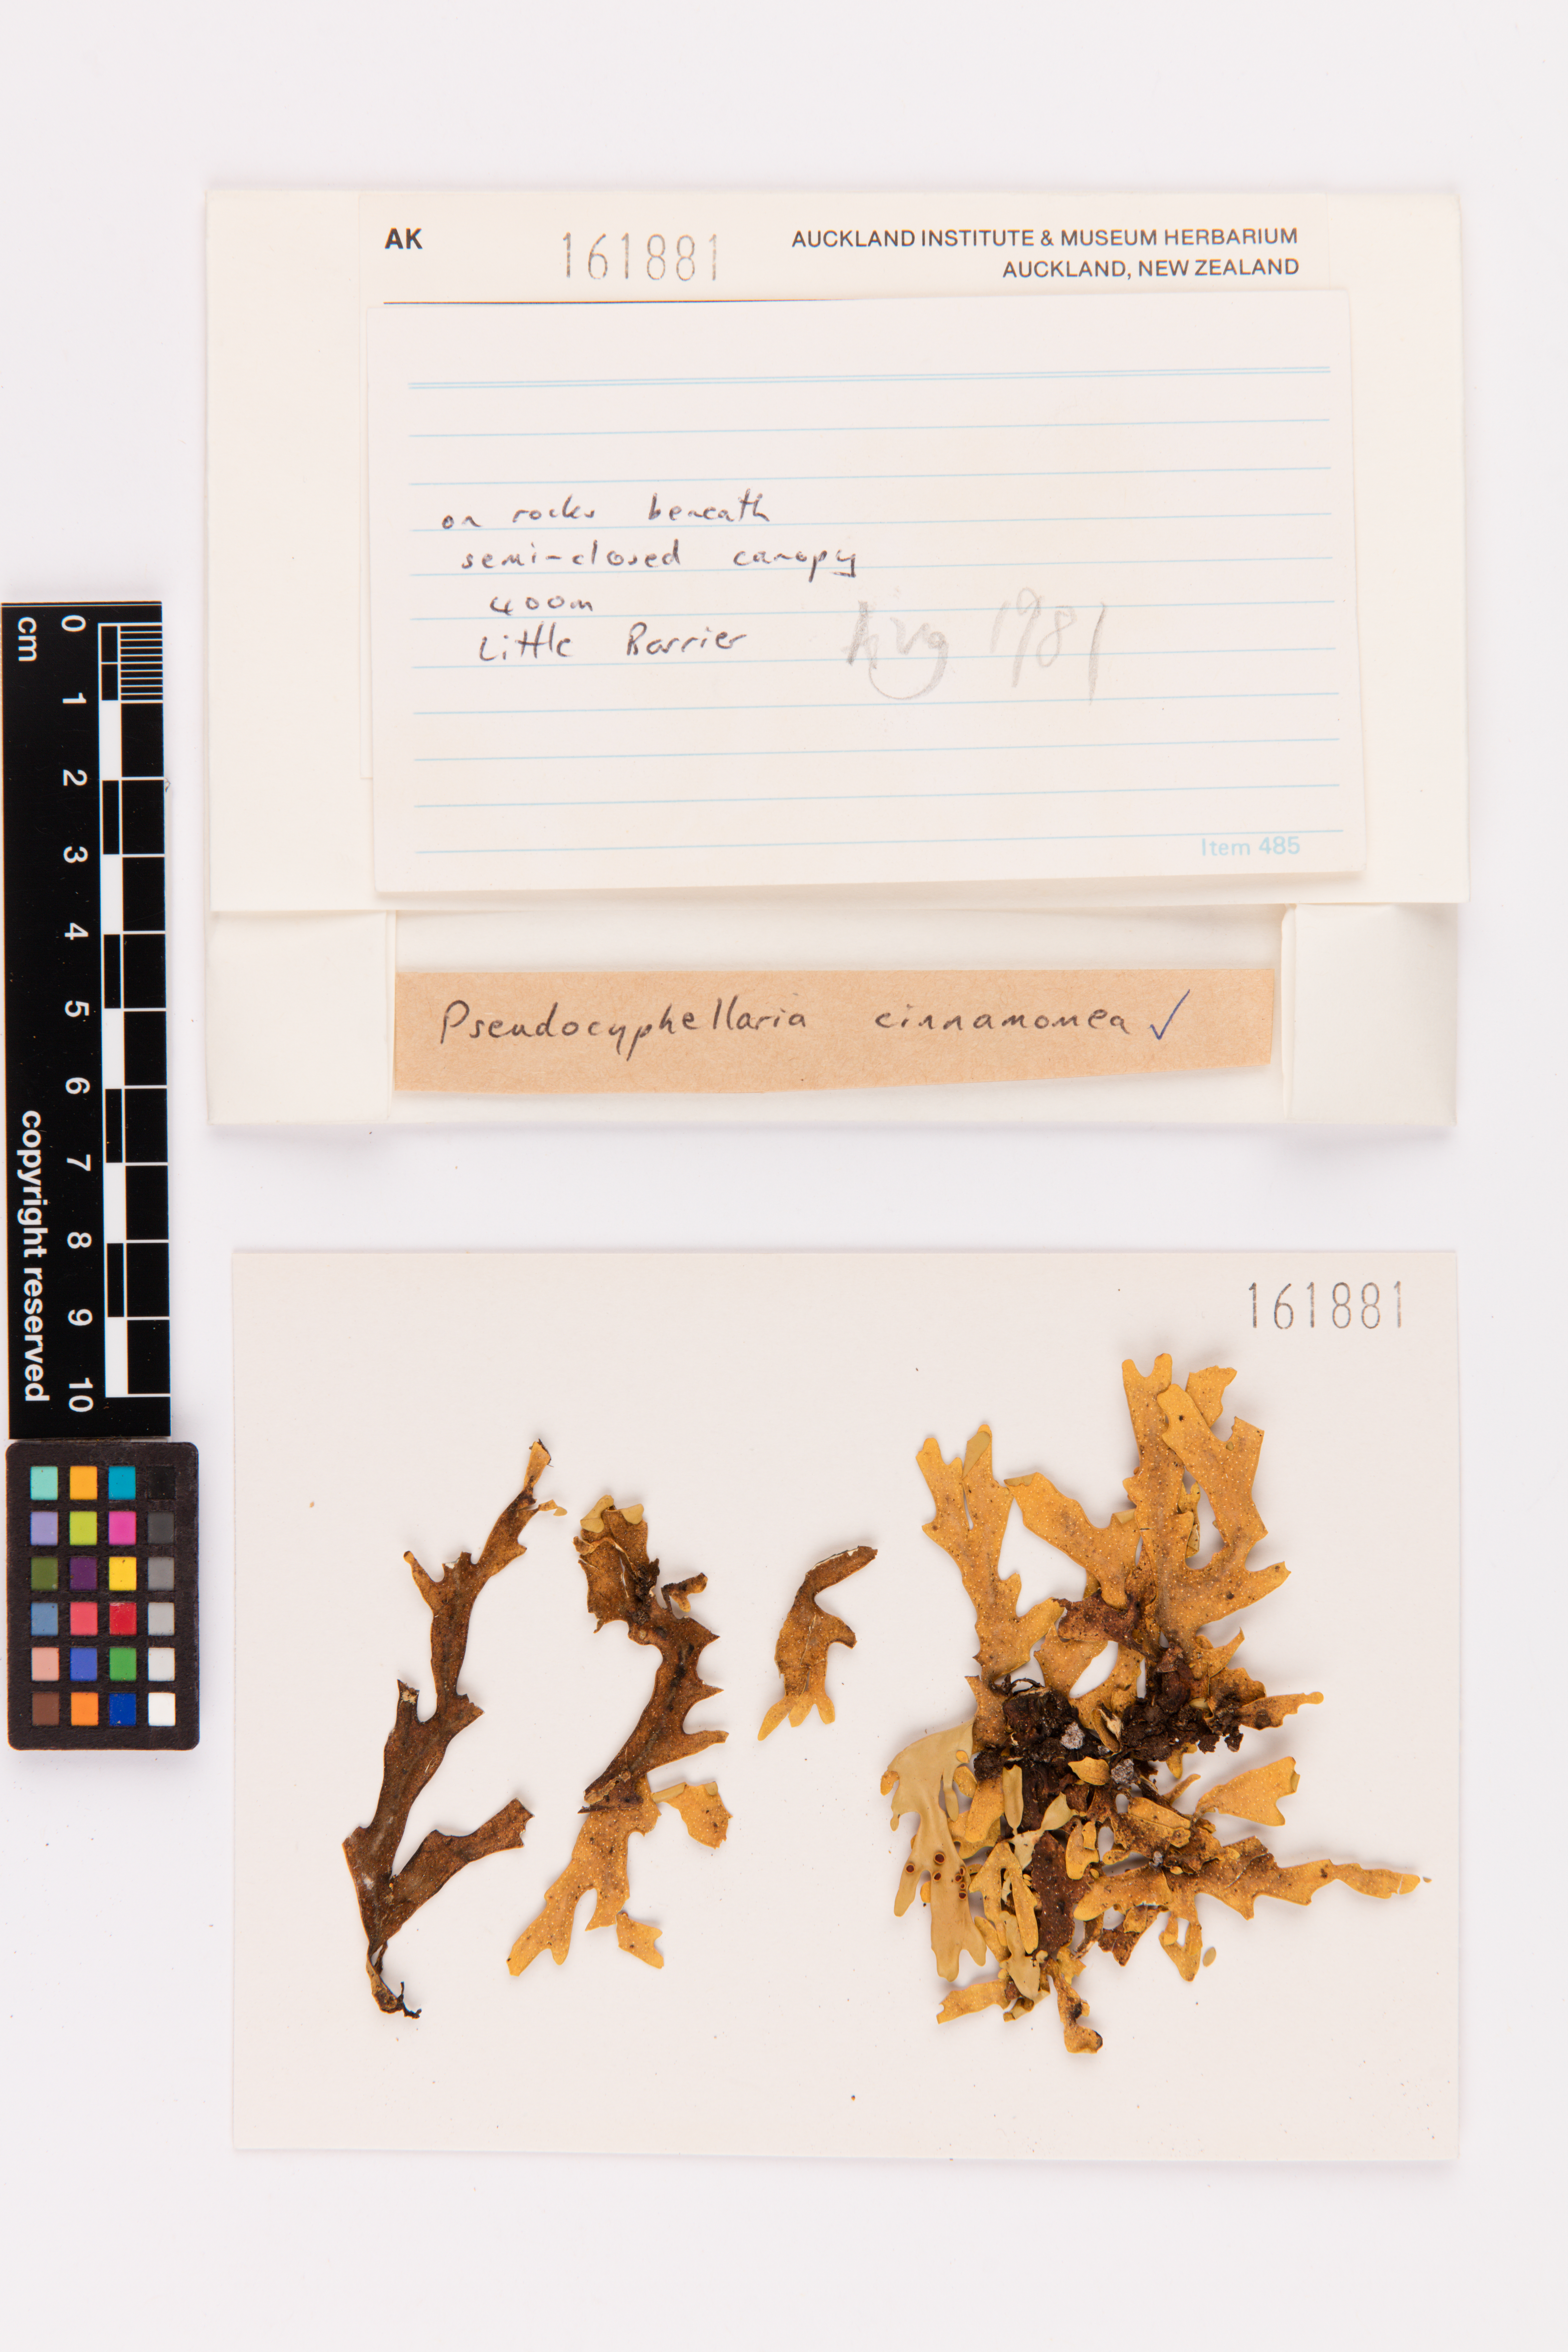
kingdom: Fungi
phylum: Ascomycota
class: Lecanoromycetes
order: Peltigerales
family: Lobariaceae
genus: Pseudocyphellaria
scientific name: Pseudocyphellaria cinnamomea
